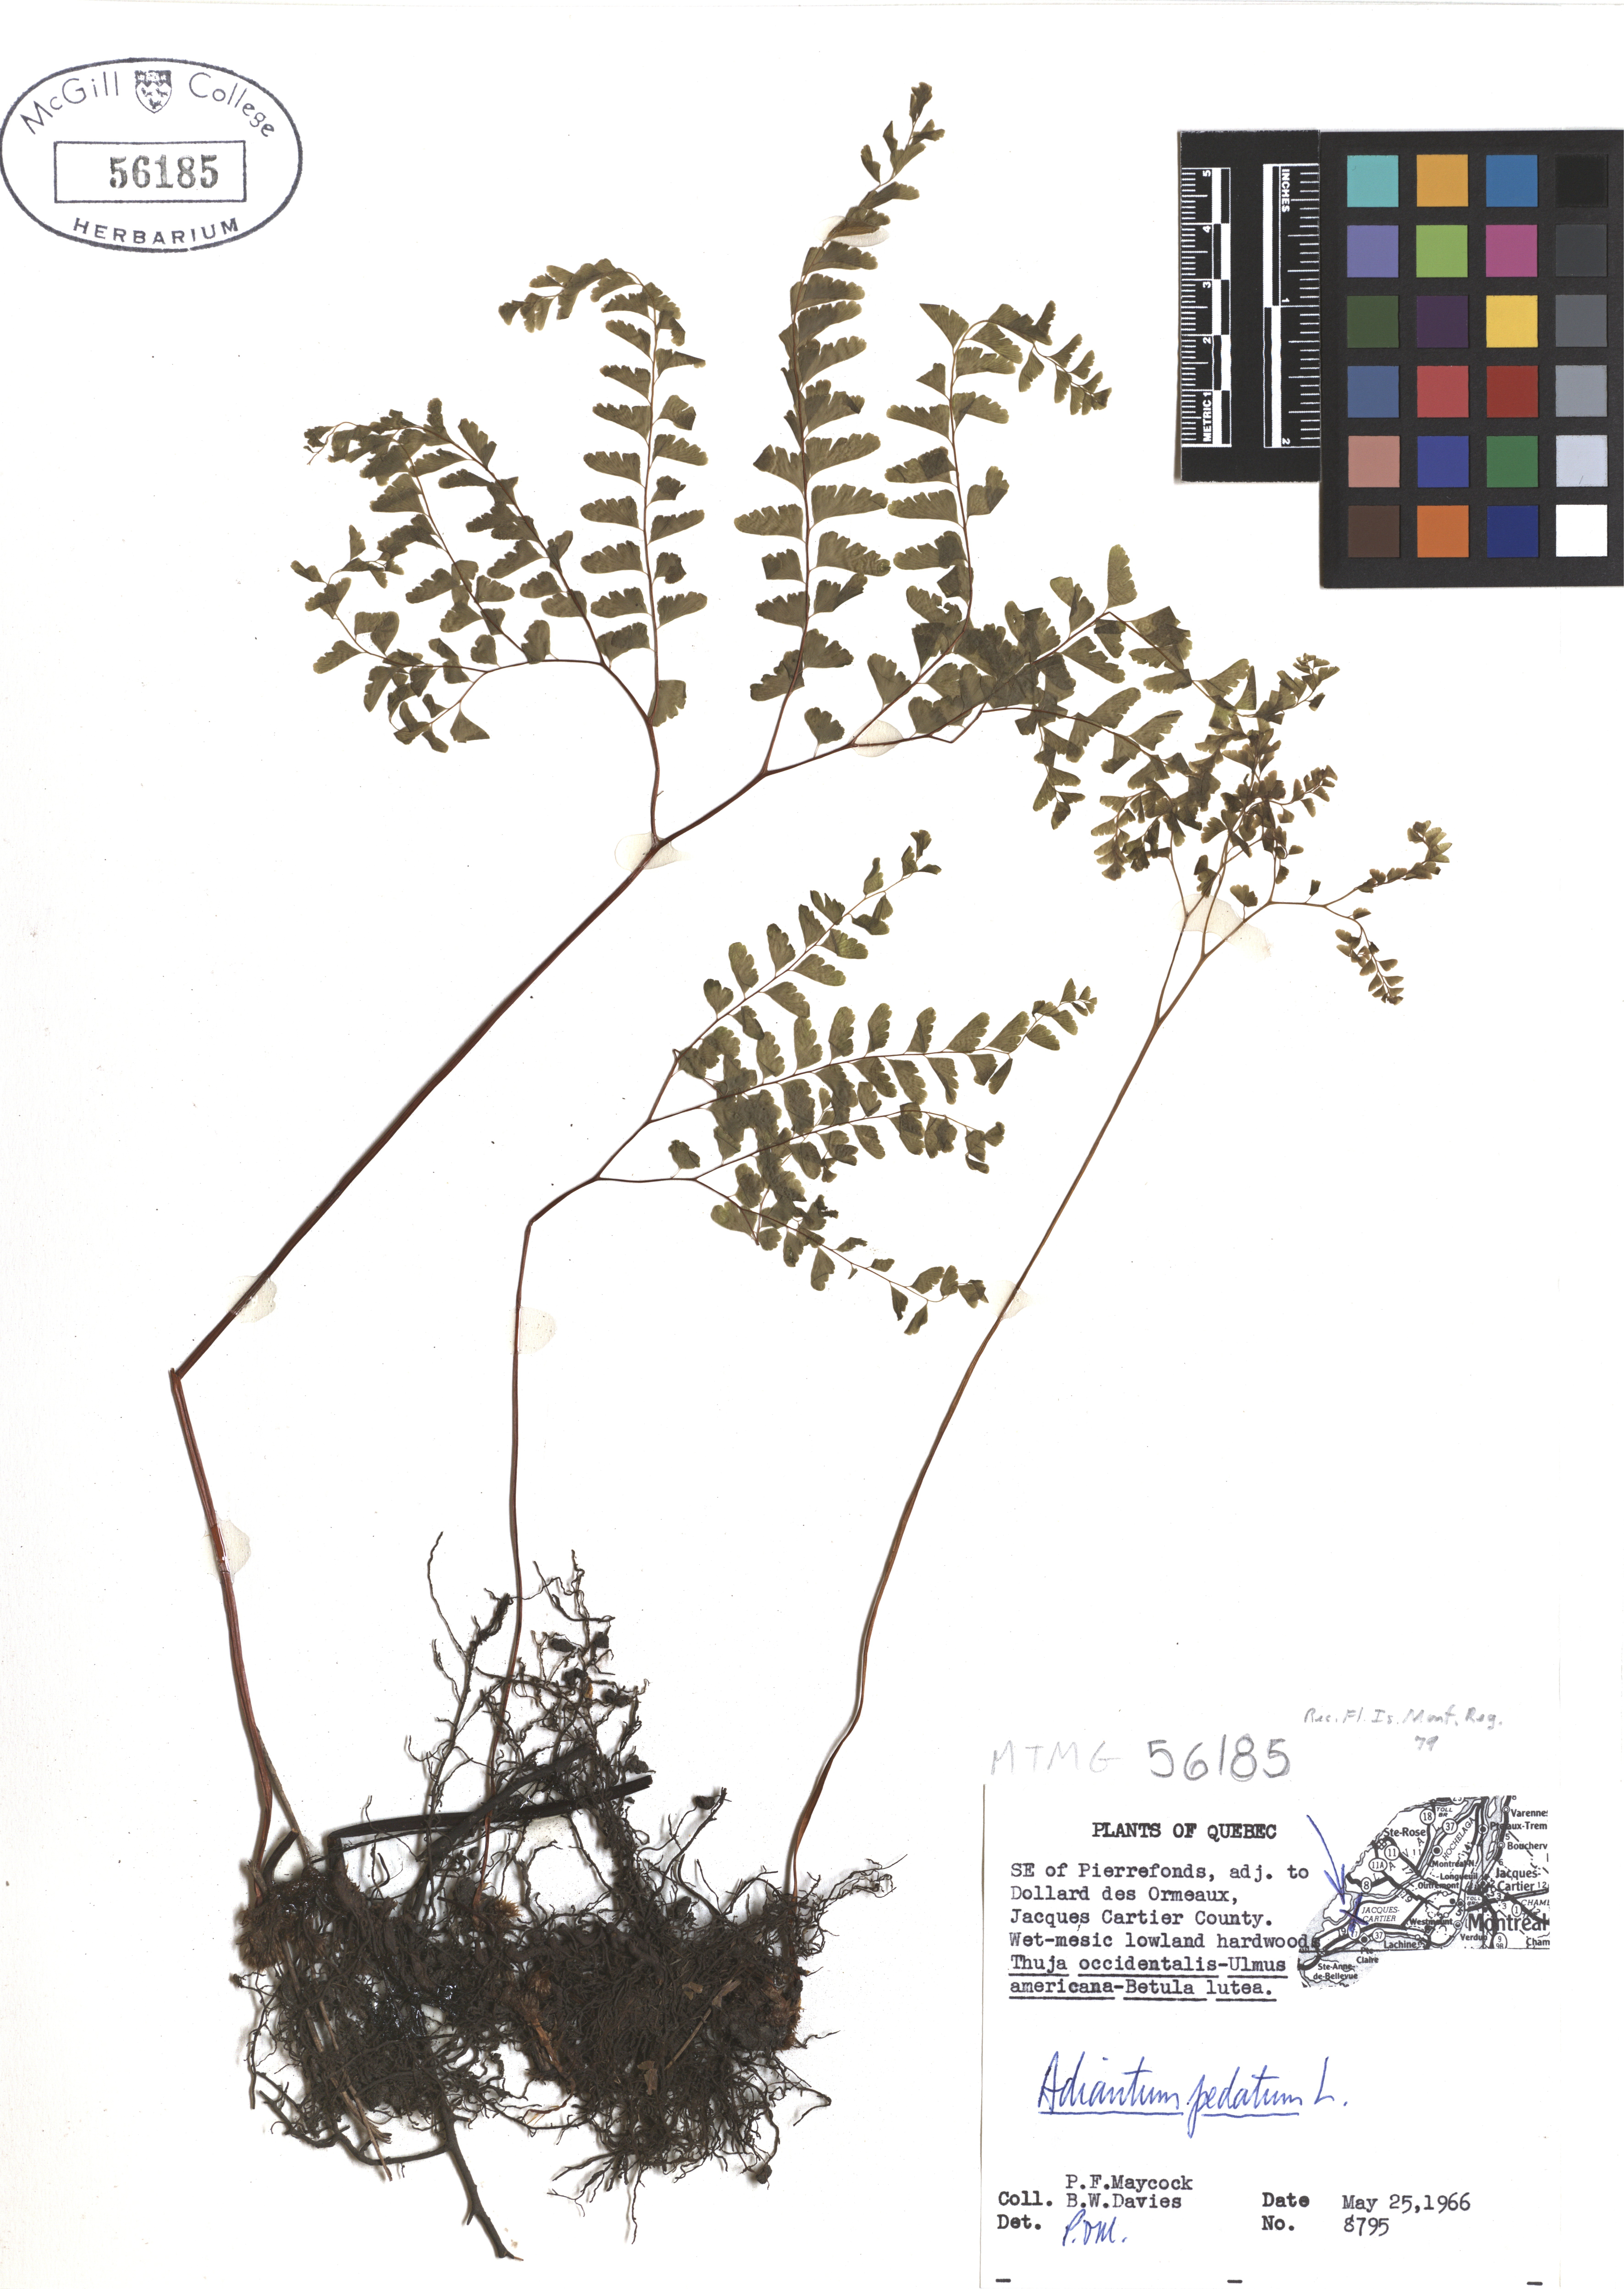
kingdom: Plantae
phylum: Tracheophyta
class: Polypodiopsida
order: Polypodiales
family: Pteridaceae
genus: Adiantum
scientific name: Adiantum pedatum
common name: Five-finger fern
